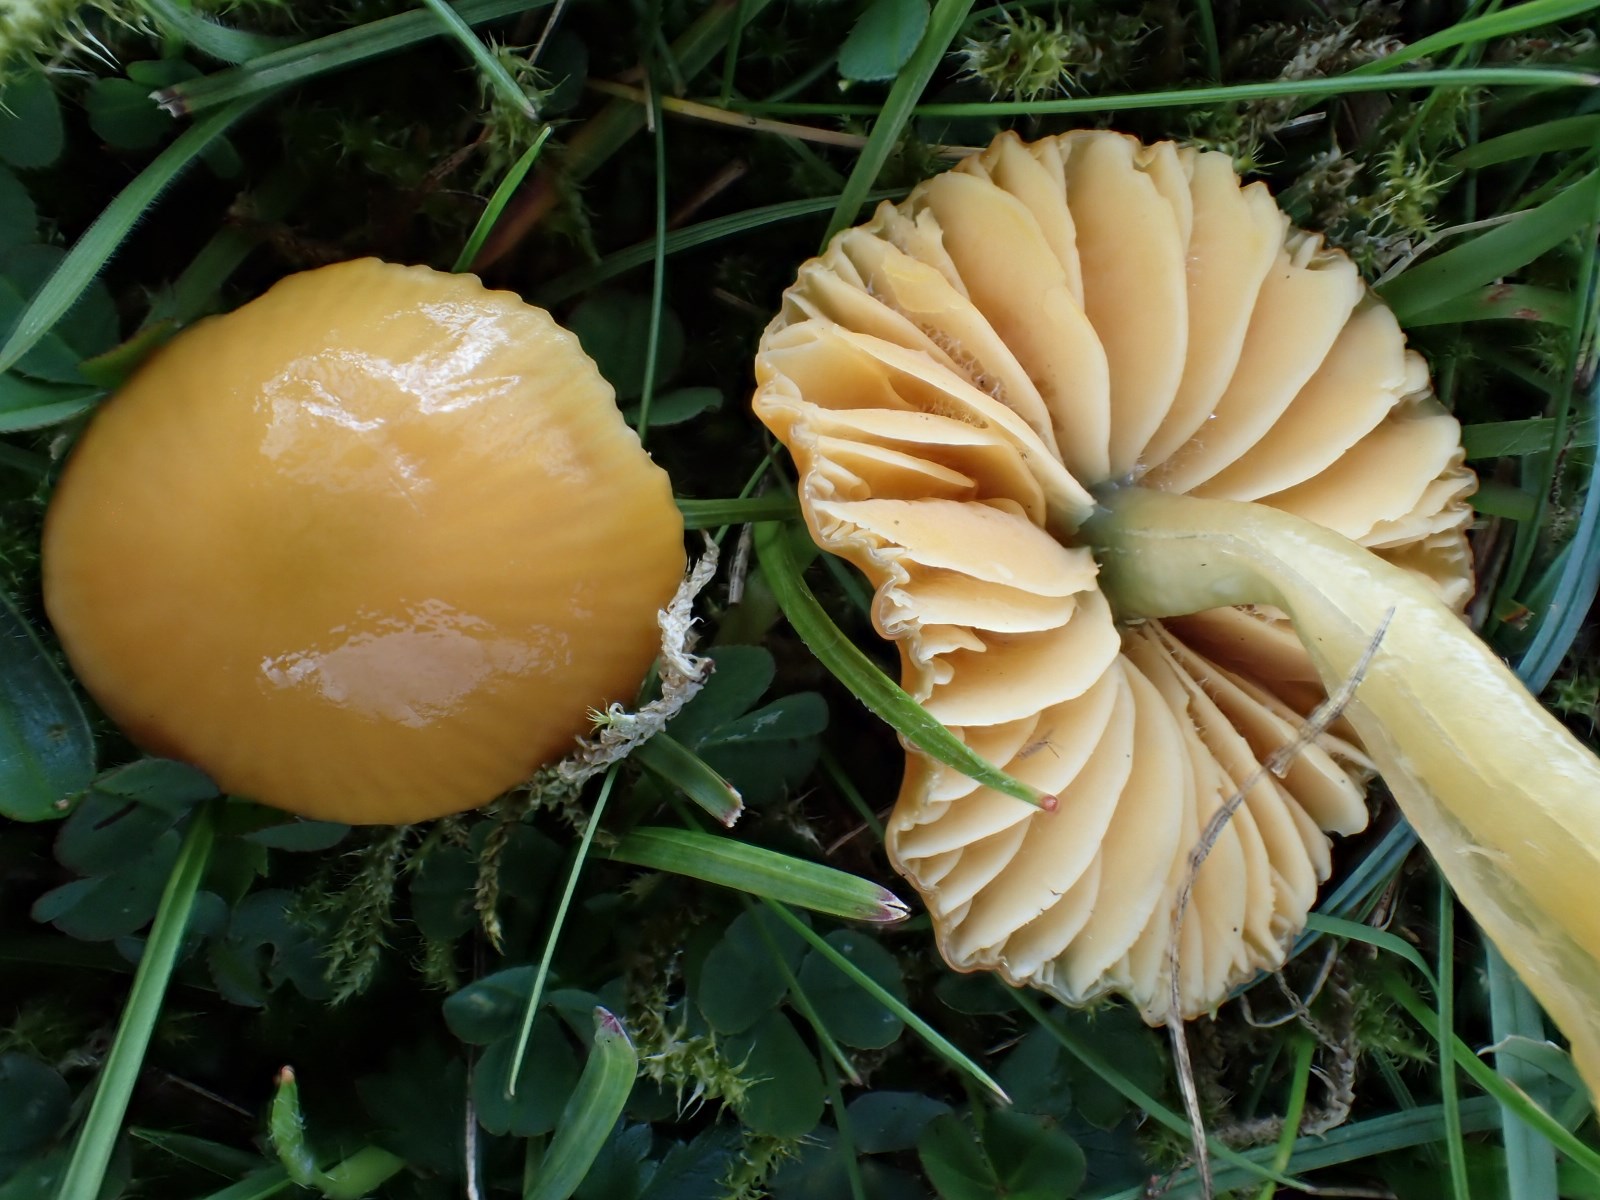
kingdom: Fungi
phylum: Basidiomycota
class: Agaricomycetes
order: Agaricales
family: Hygrophoraceae
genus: Gliophorus
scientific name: Gliophorus laetus
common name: brusk-vokshat
